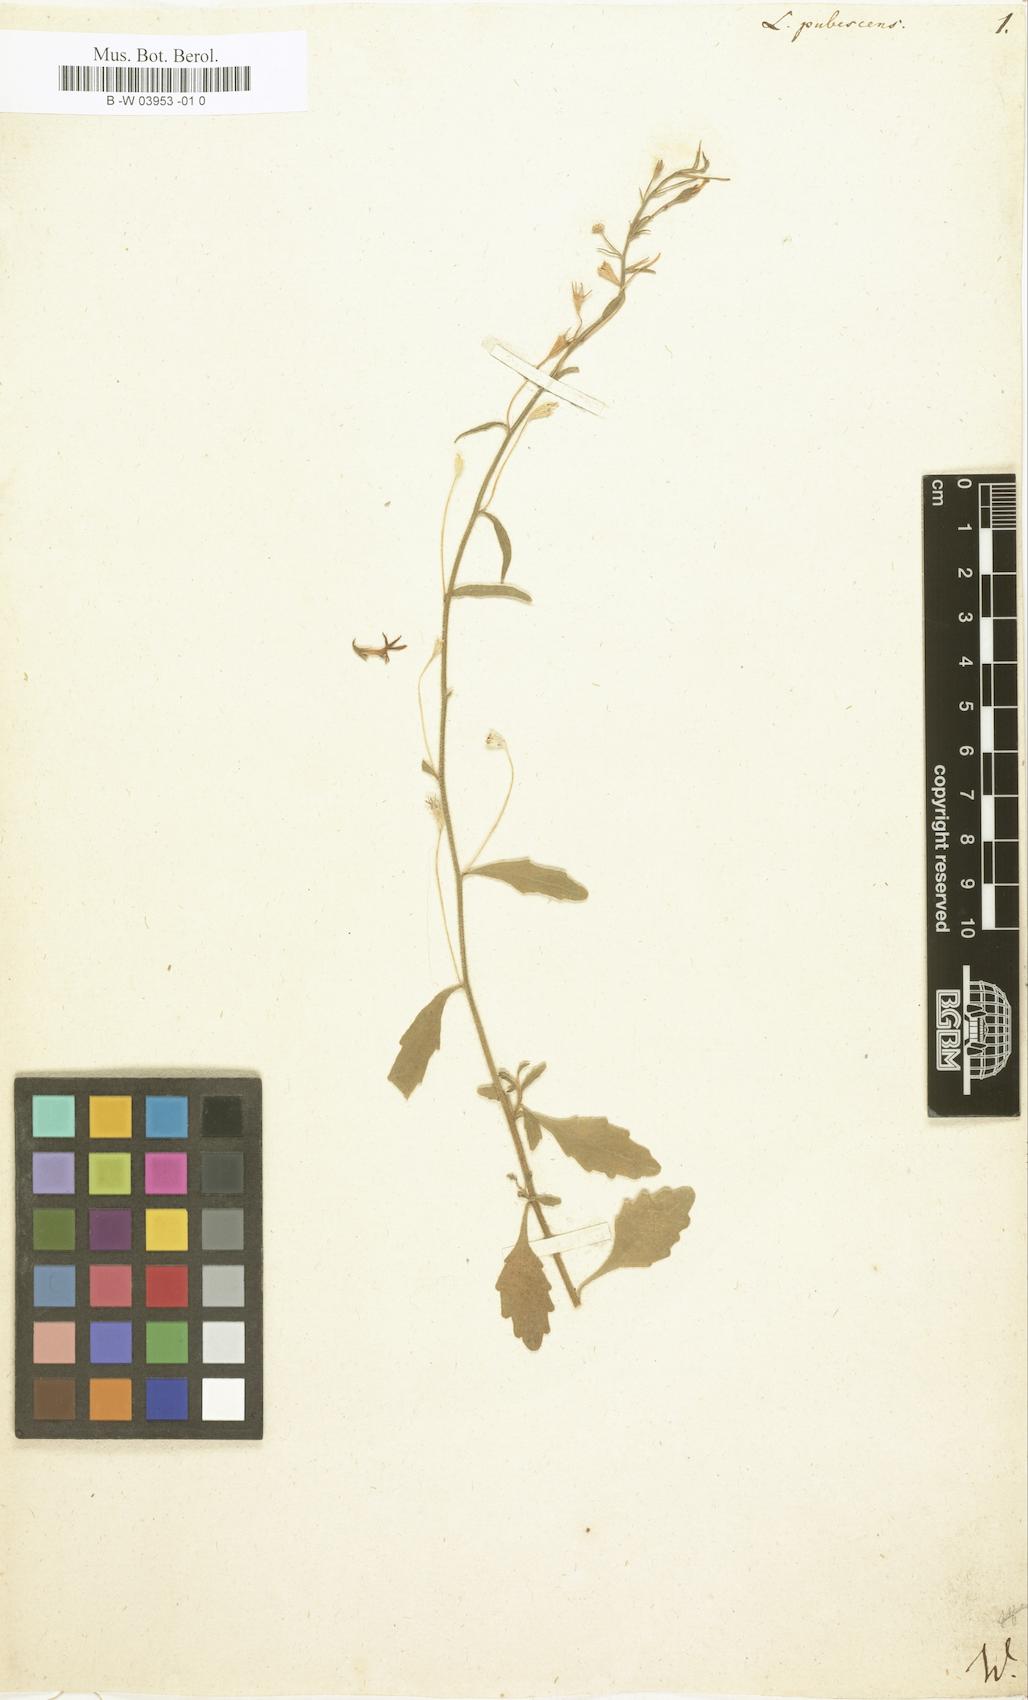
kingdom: Plantae
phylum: Tracheophyta
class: Magnoliopsida
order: Asterales
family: Campanulaceae
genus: Lobelia
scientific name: Lobelia pubescens
